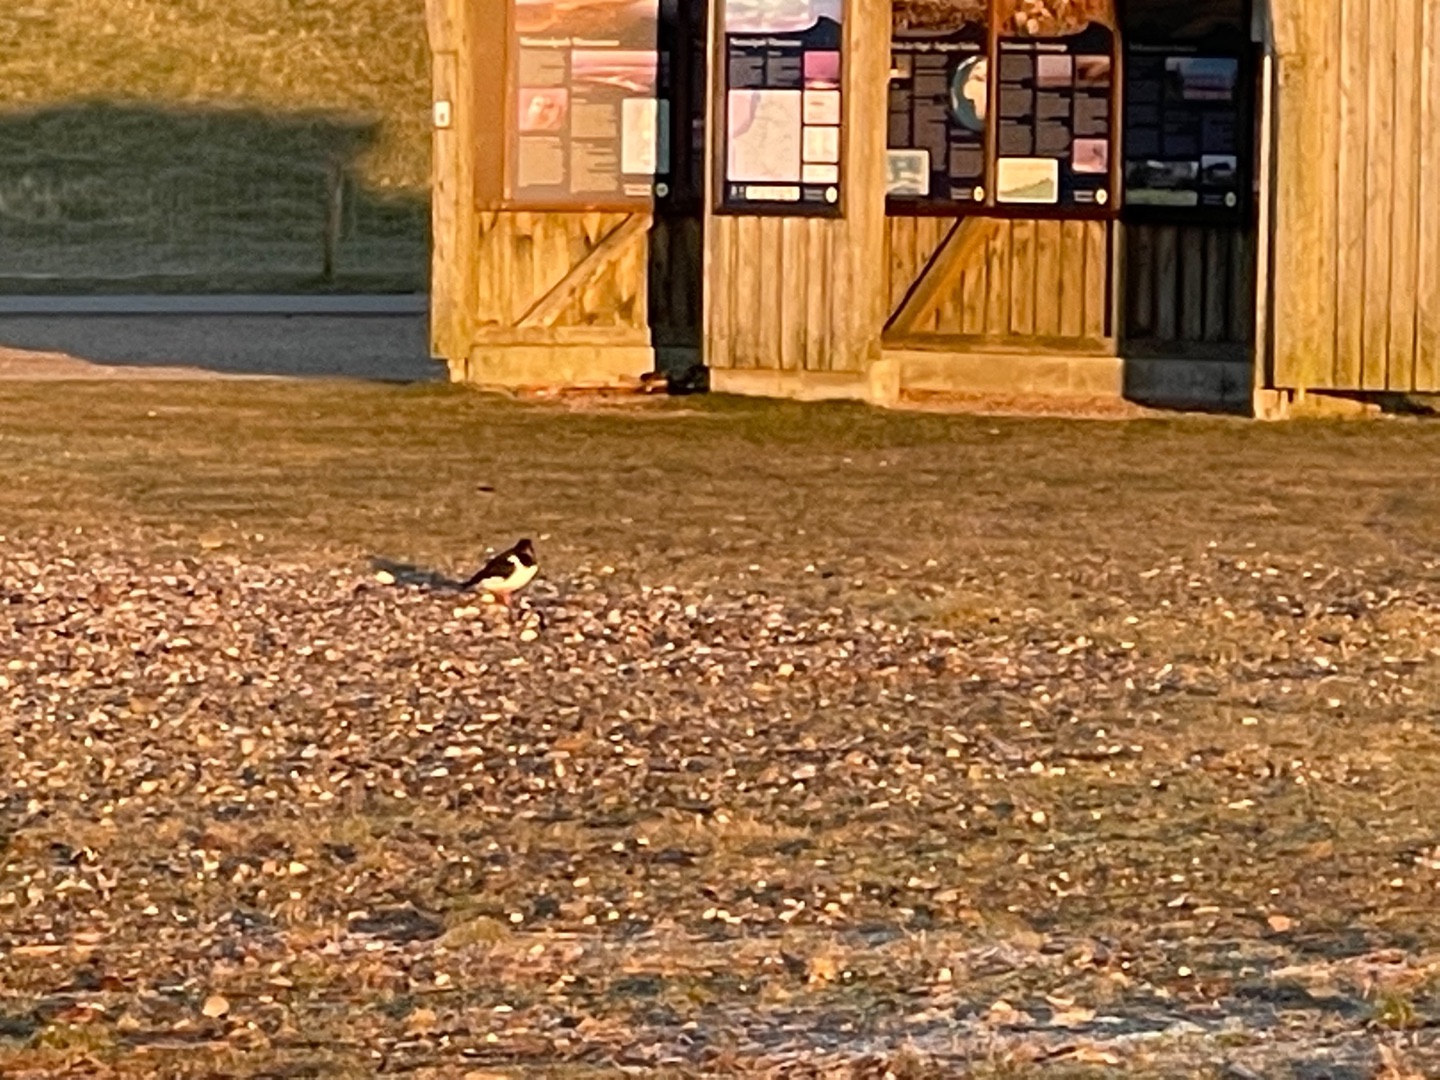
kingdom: Animalia
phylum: Chordata
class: Aves
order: Charadriiformes
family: Haematopodidae
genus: Haematopus
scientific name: Haematopus ostralegus
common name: Strandskade
